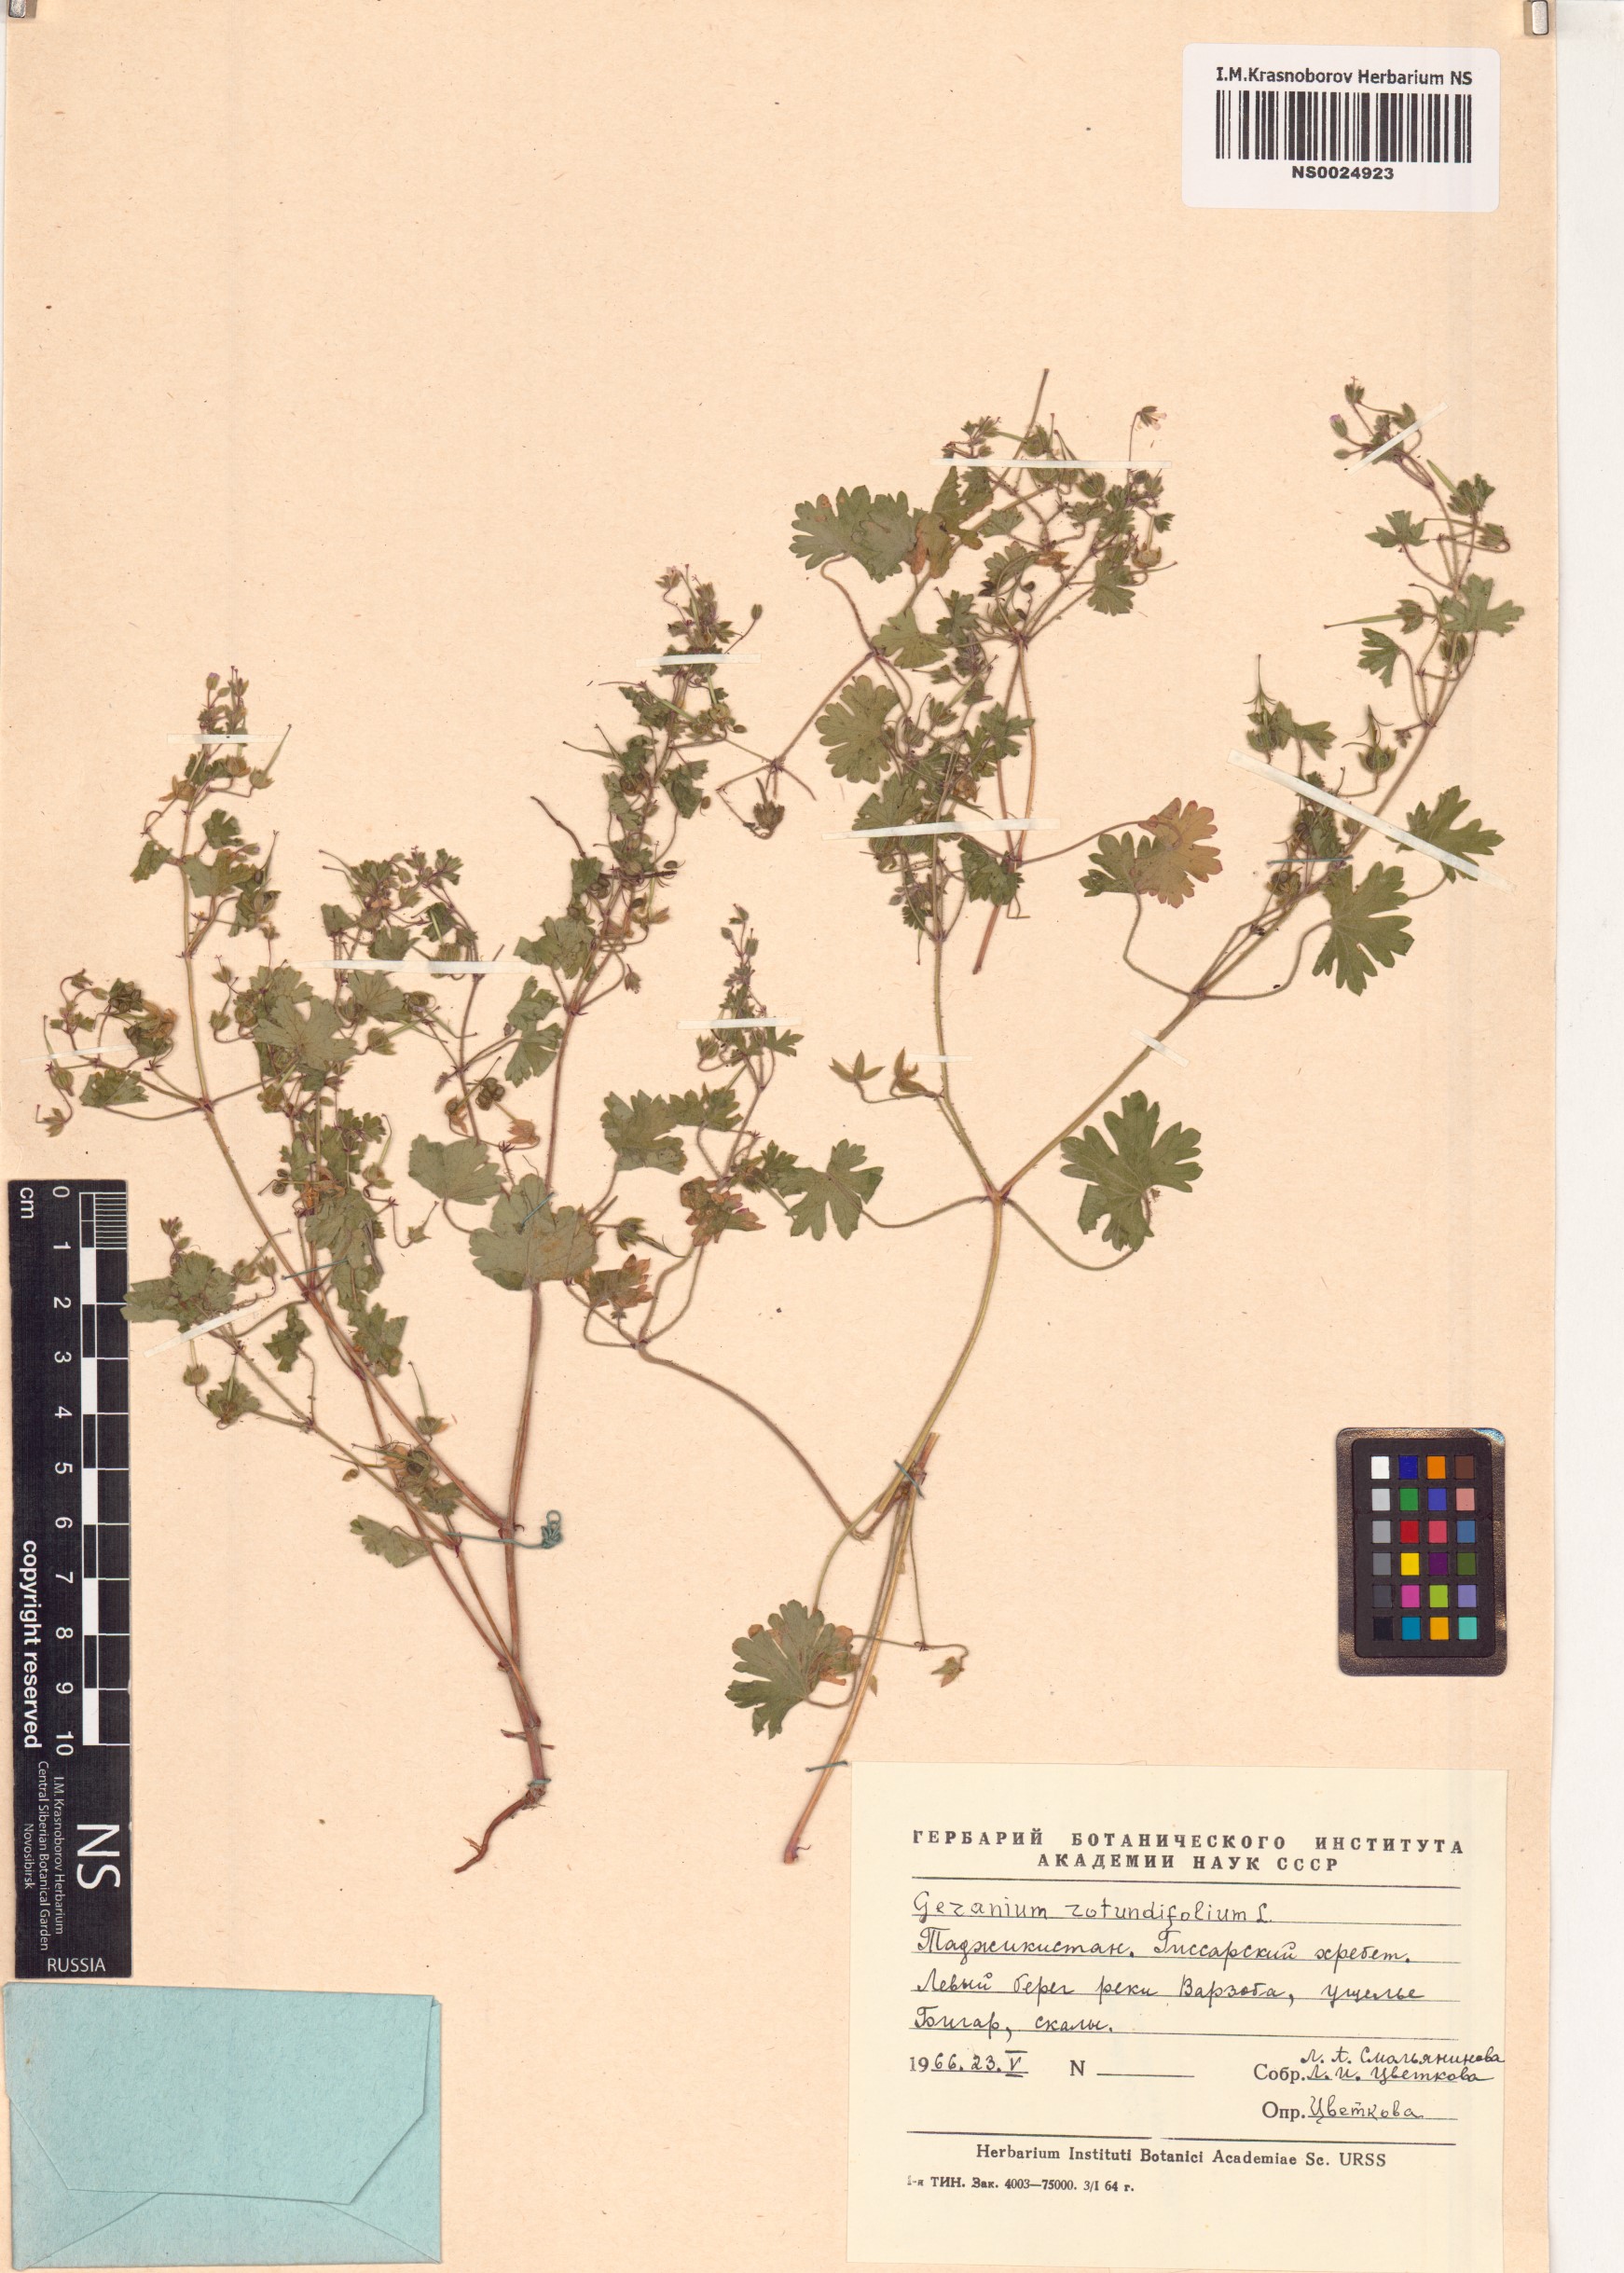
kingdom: Plantae
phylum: Tracheophyta
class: Magnoliopsida
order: Geraniales
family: Geraniaceae
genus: Geranium
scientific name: Geranium rotundifolium
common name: Round-leaved crane's-bill
